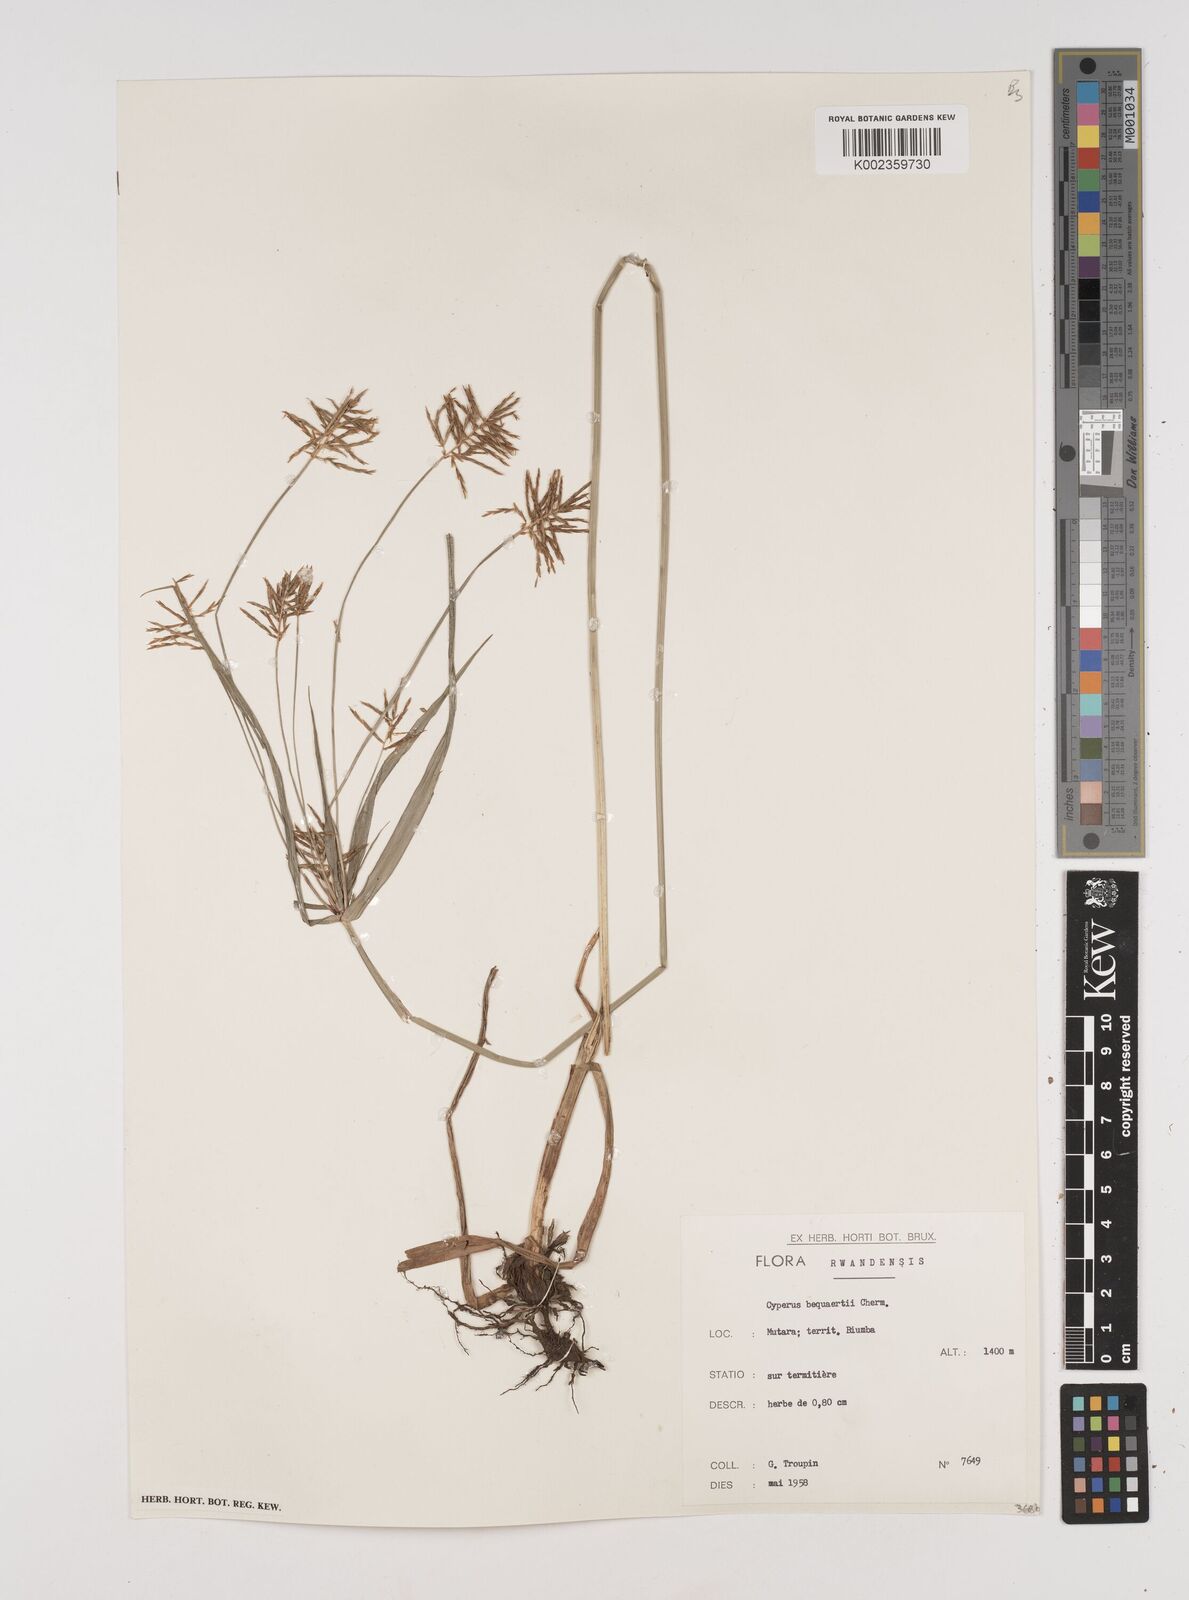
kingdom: Plantae
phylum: Tracheophyta
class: Liliopsida
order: Poales
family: Cyperaceae
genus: Cyperus
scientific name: Cyperus ferrugineoviridis
